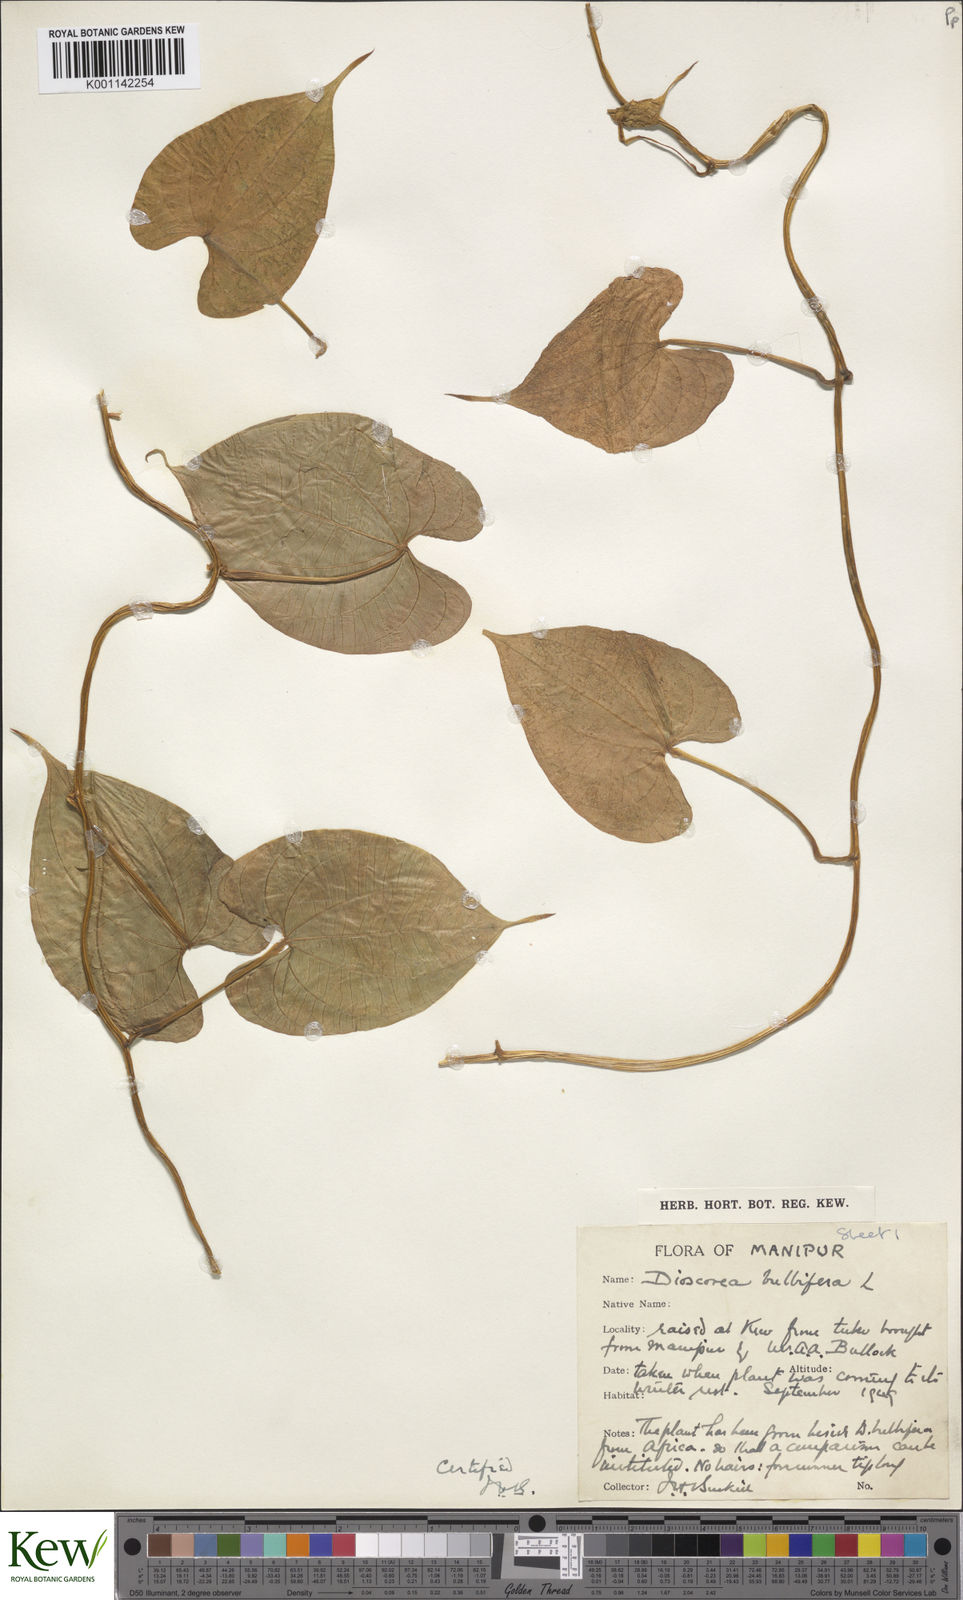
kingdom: Plantae
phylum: Tracheophyta
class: Liliopsida
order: Dioscoreales
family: Dioscoreaceae
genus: Dioscorea
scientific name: Dioscorea bulbifera
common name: Air yam
